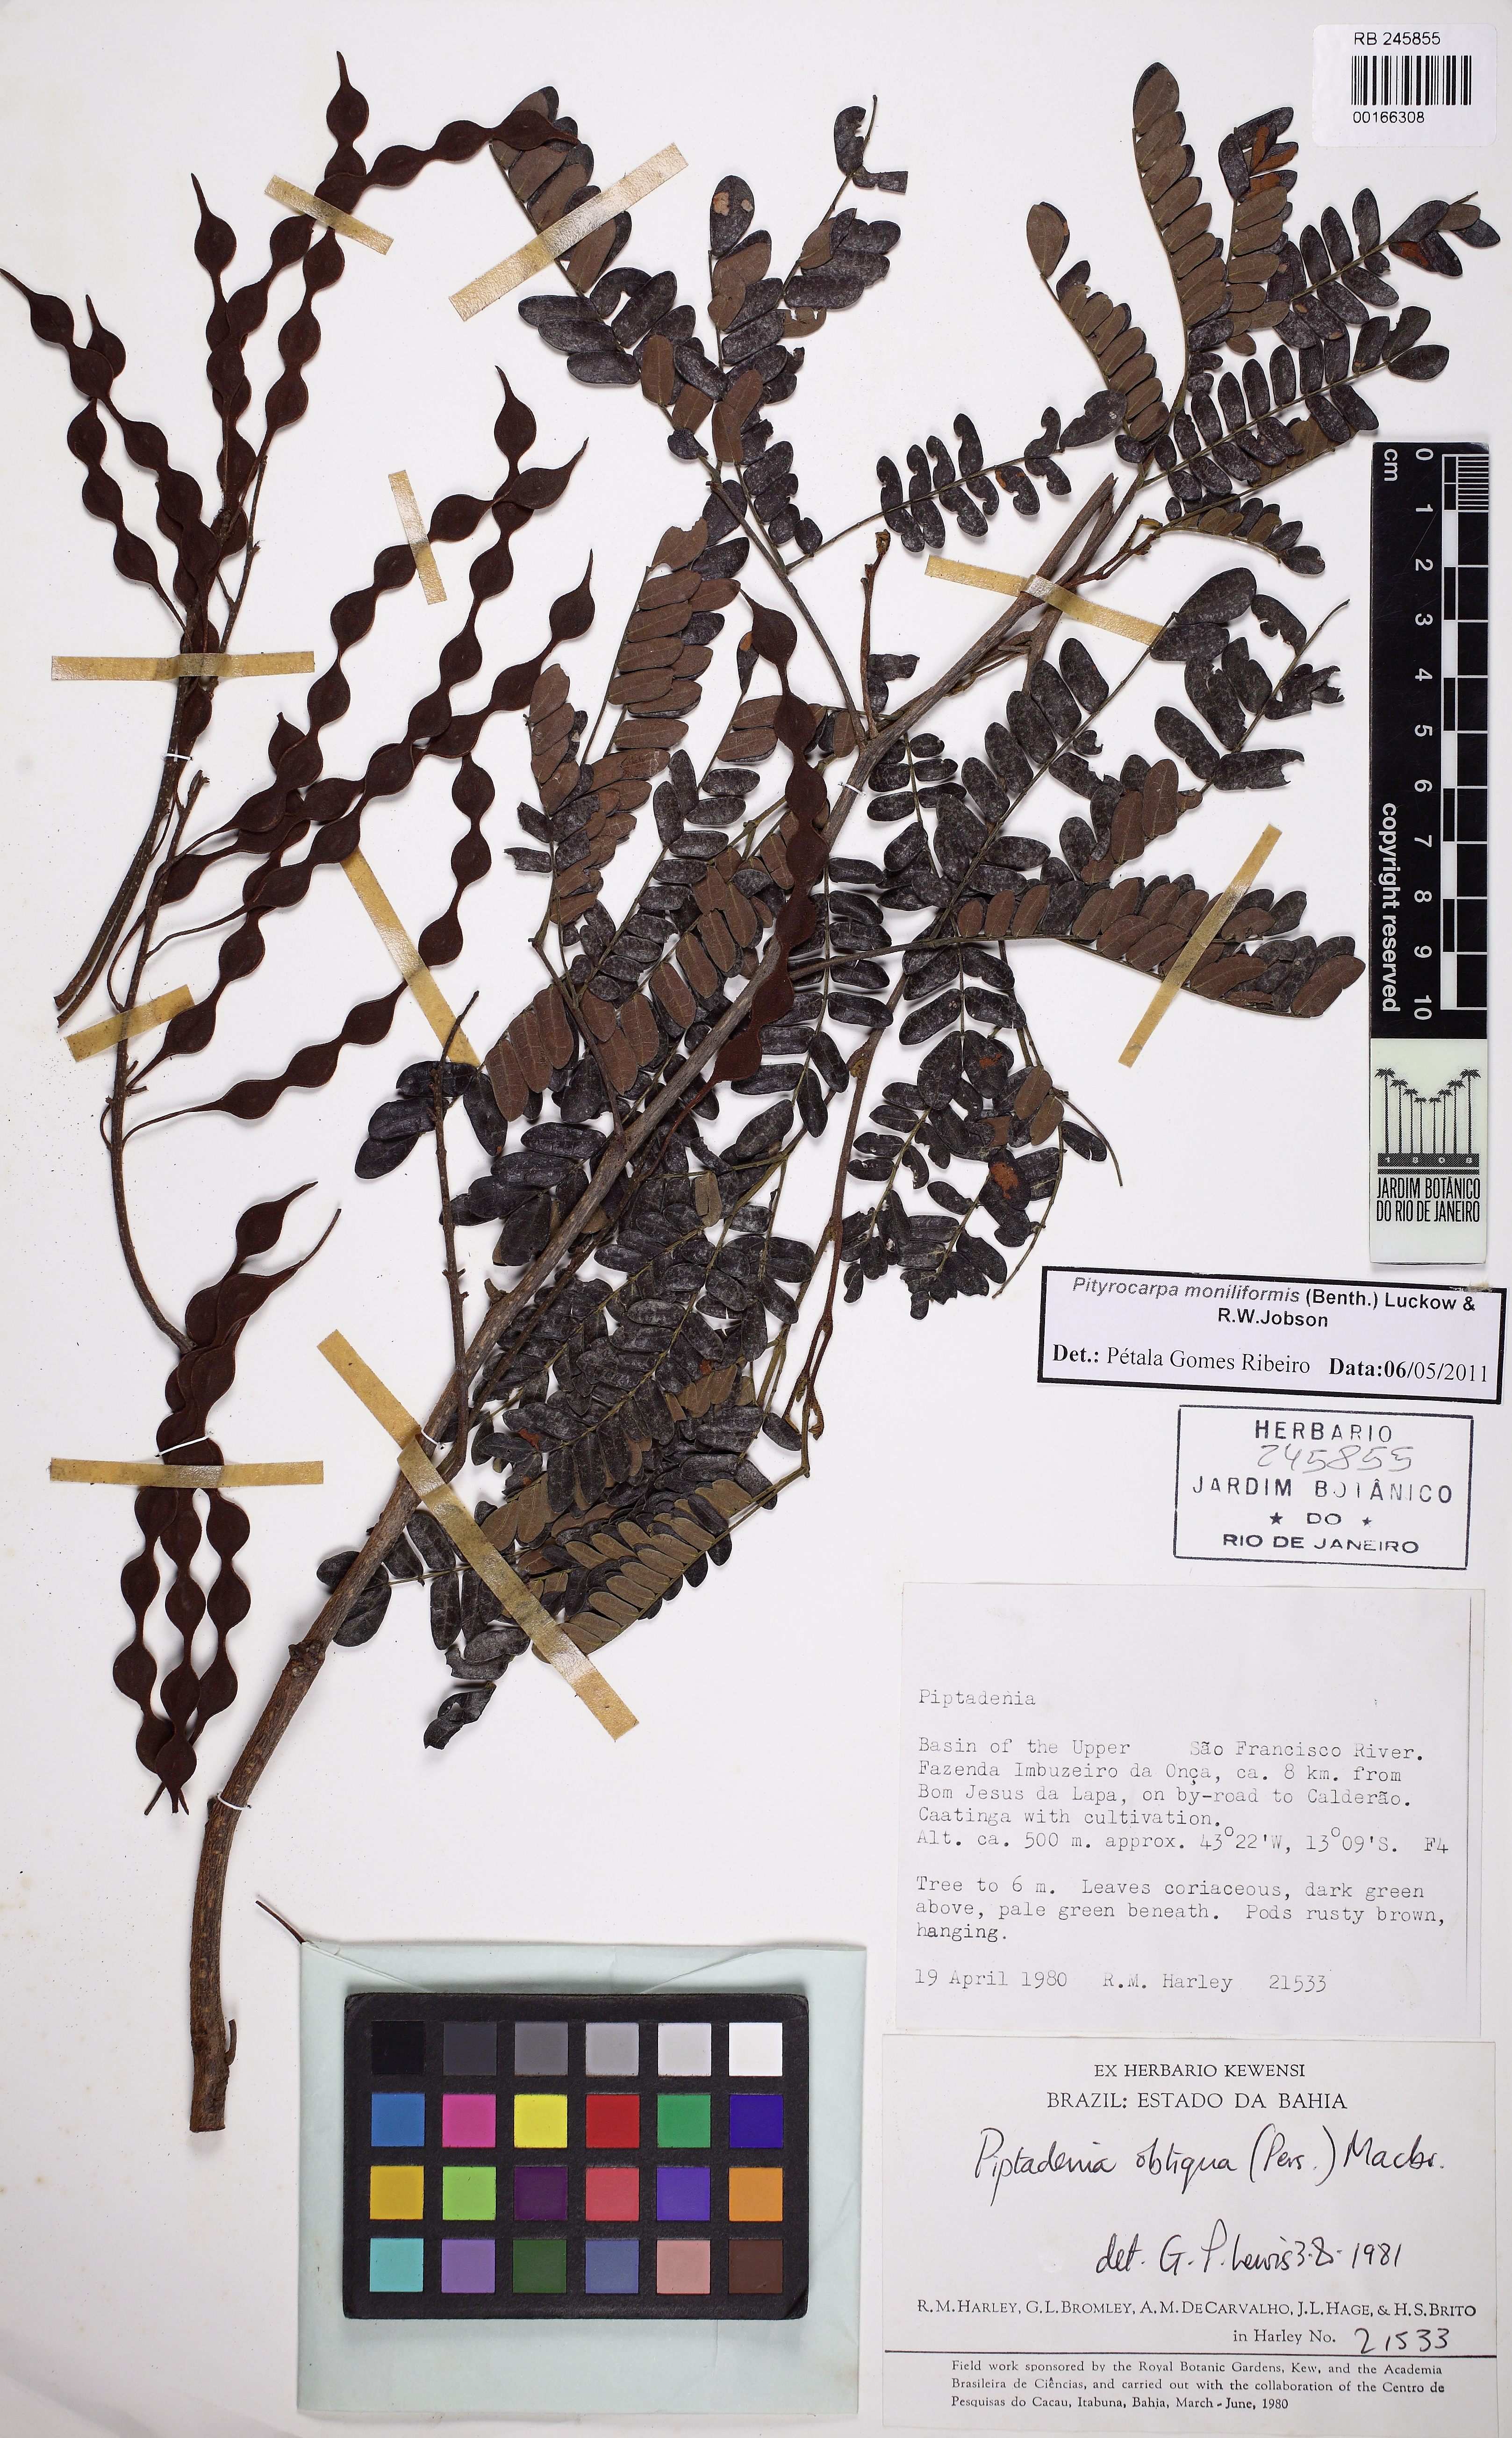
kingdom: Plantae
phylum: Tracheophyta
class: Magnoliopsida
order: Fabales
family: Fabaceae
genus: Pityrocarpa
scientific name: Pityrocarpa moniliformis
